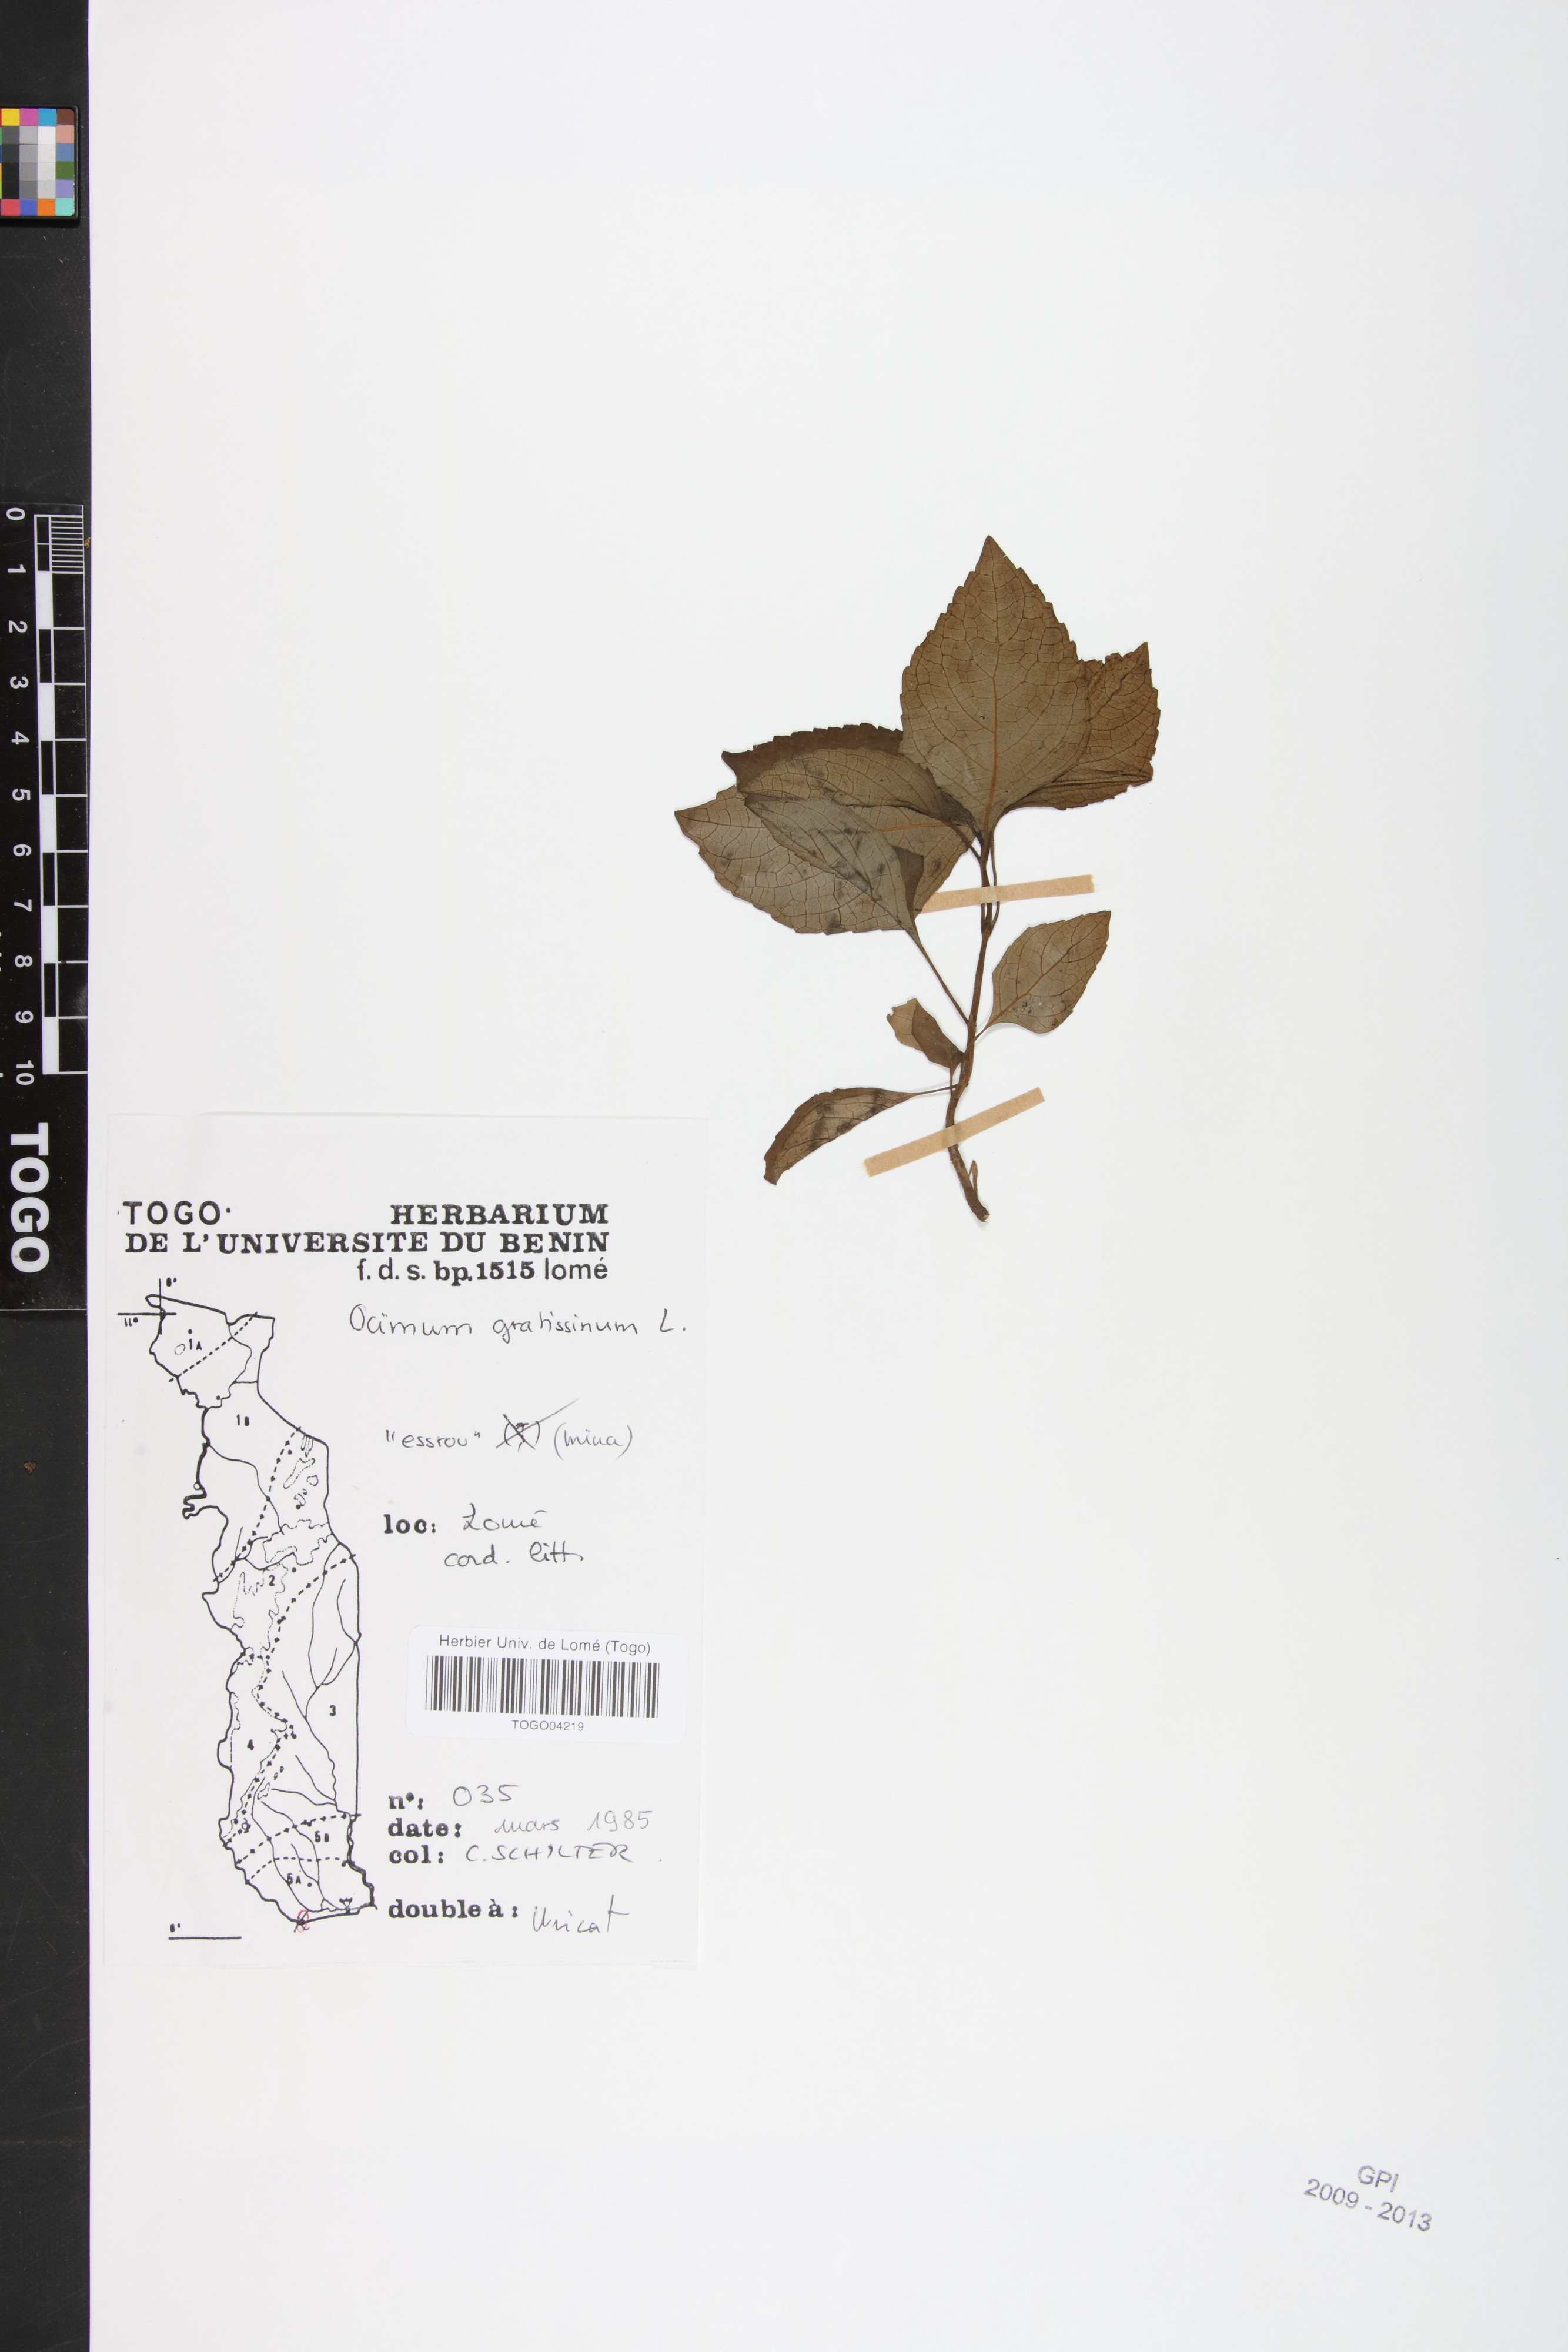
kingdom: Plantae
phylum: Tracheophyta
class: Magnoliopsida
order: Lamiales
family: Lamiaceae
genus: Ocimum
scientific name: Ocimum gratissimum
